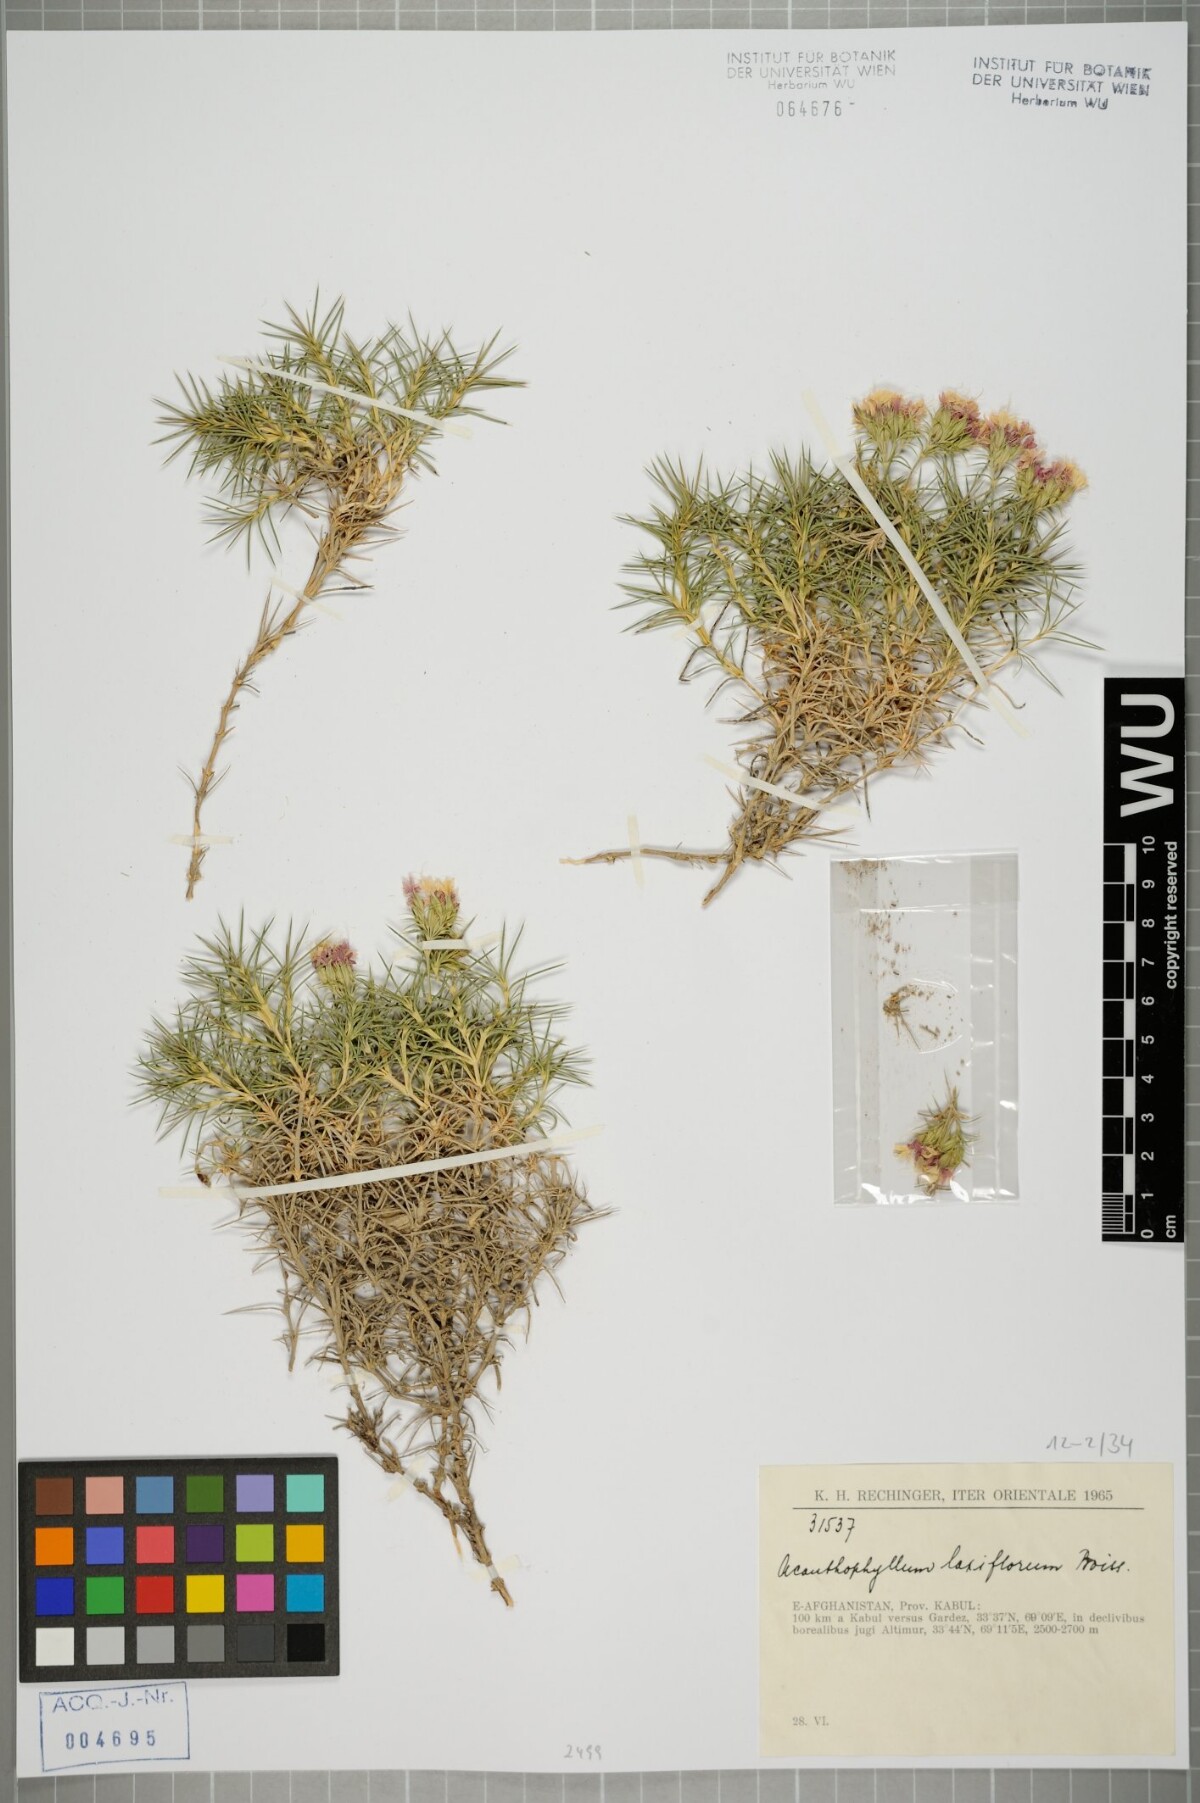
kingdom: Plantae
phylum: Tracheophyta
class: Magnoliopsida
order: Caryophyllales
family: Caryophyllaceae
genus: Acanthophyllum
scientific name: Acanthophyllum laxiflorum
